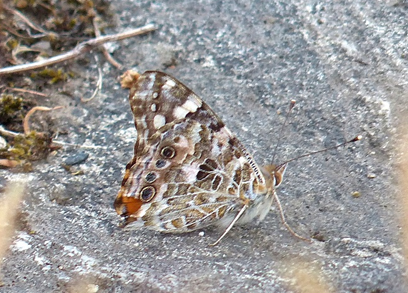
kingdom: Animalia
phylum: Arthropoda
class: Insecta
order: Lepidoptera
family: Nymphalidae
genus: Vanessa
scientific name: Vanessa cardui
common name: Painted Lady
